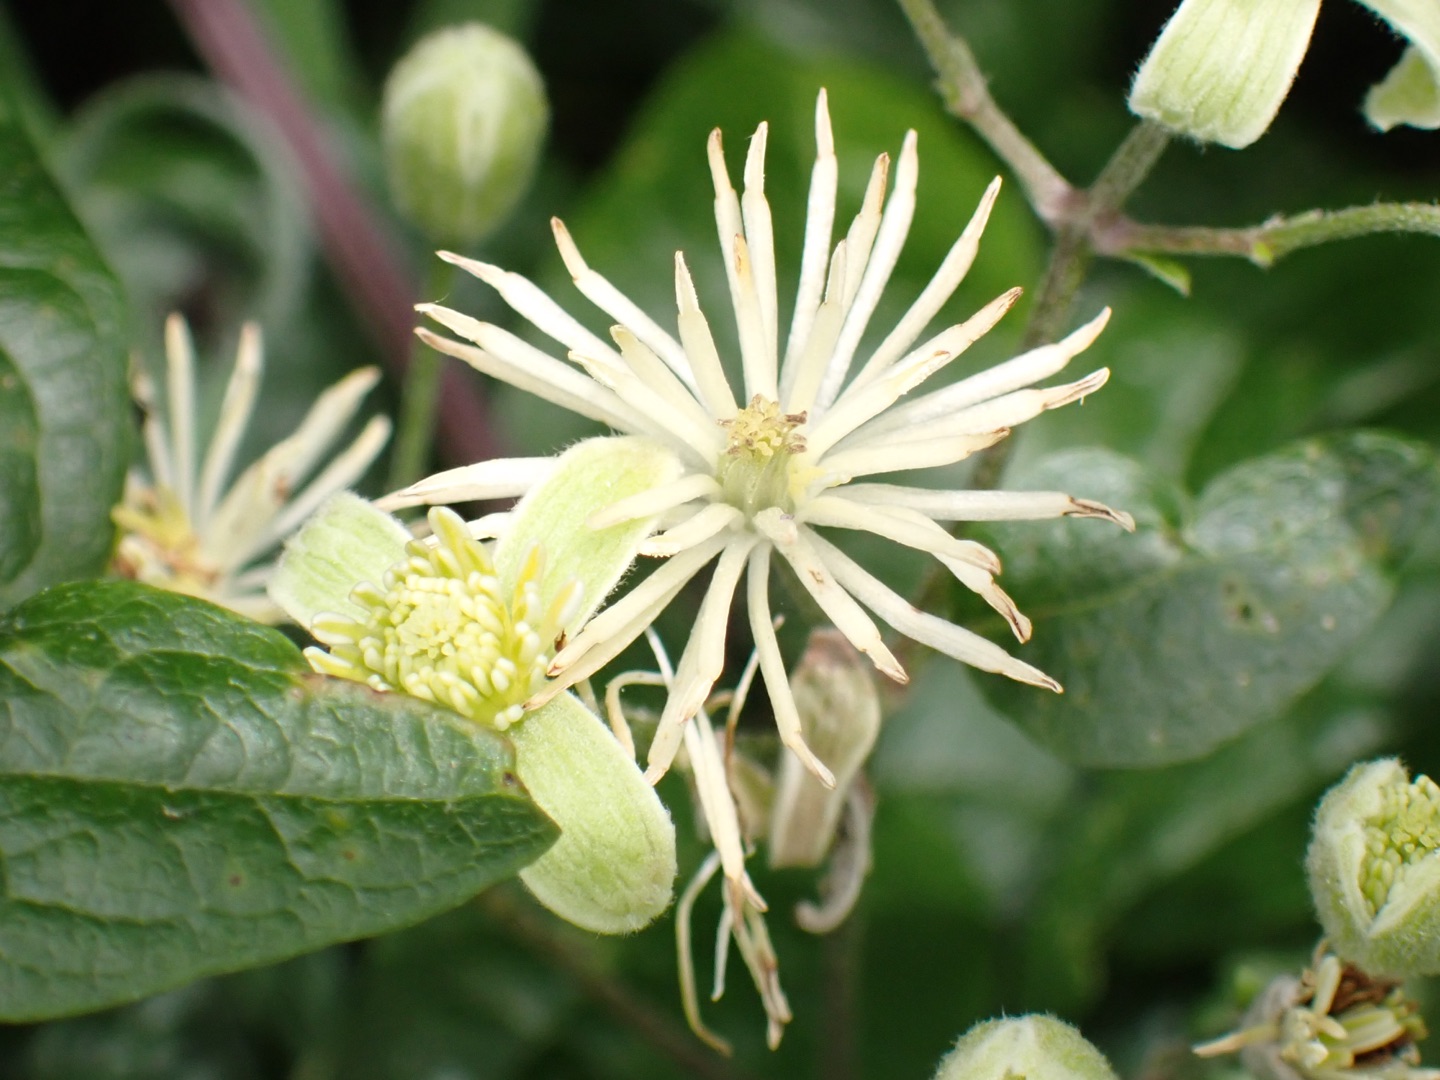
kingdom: Plantae
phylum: Tracheophyta
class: Magnoliopsida
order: Ranunculales
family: Ranunculaceae
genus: Clematis
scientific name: Clematis vitalba
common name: Skovranke
